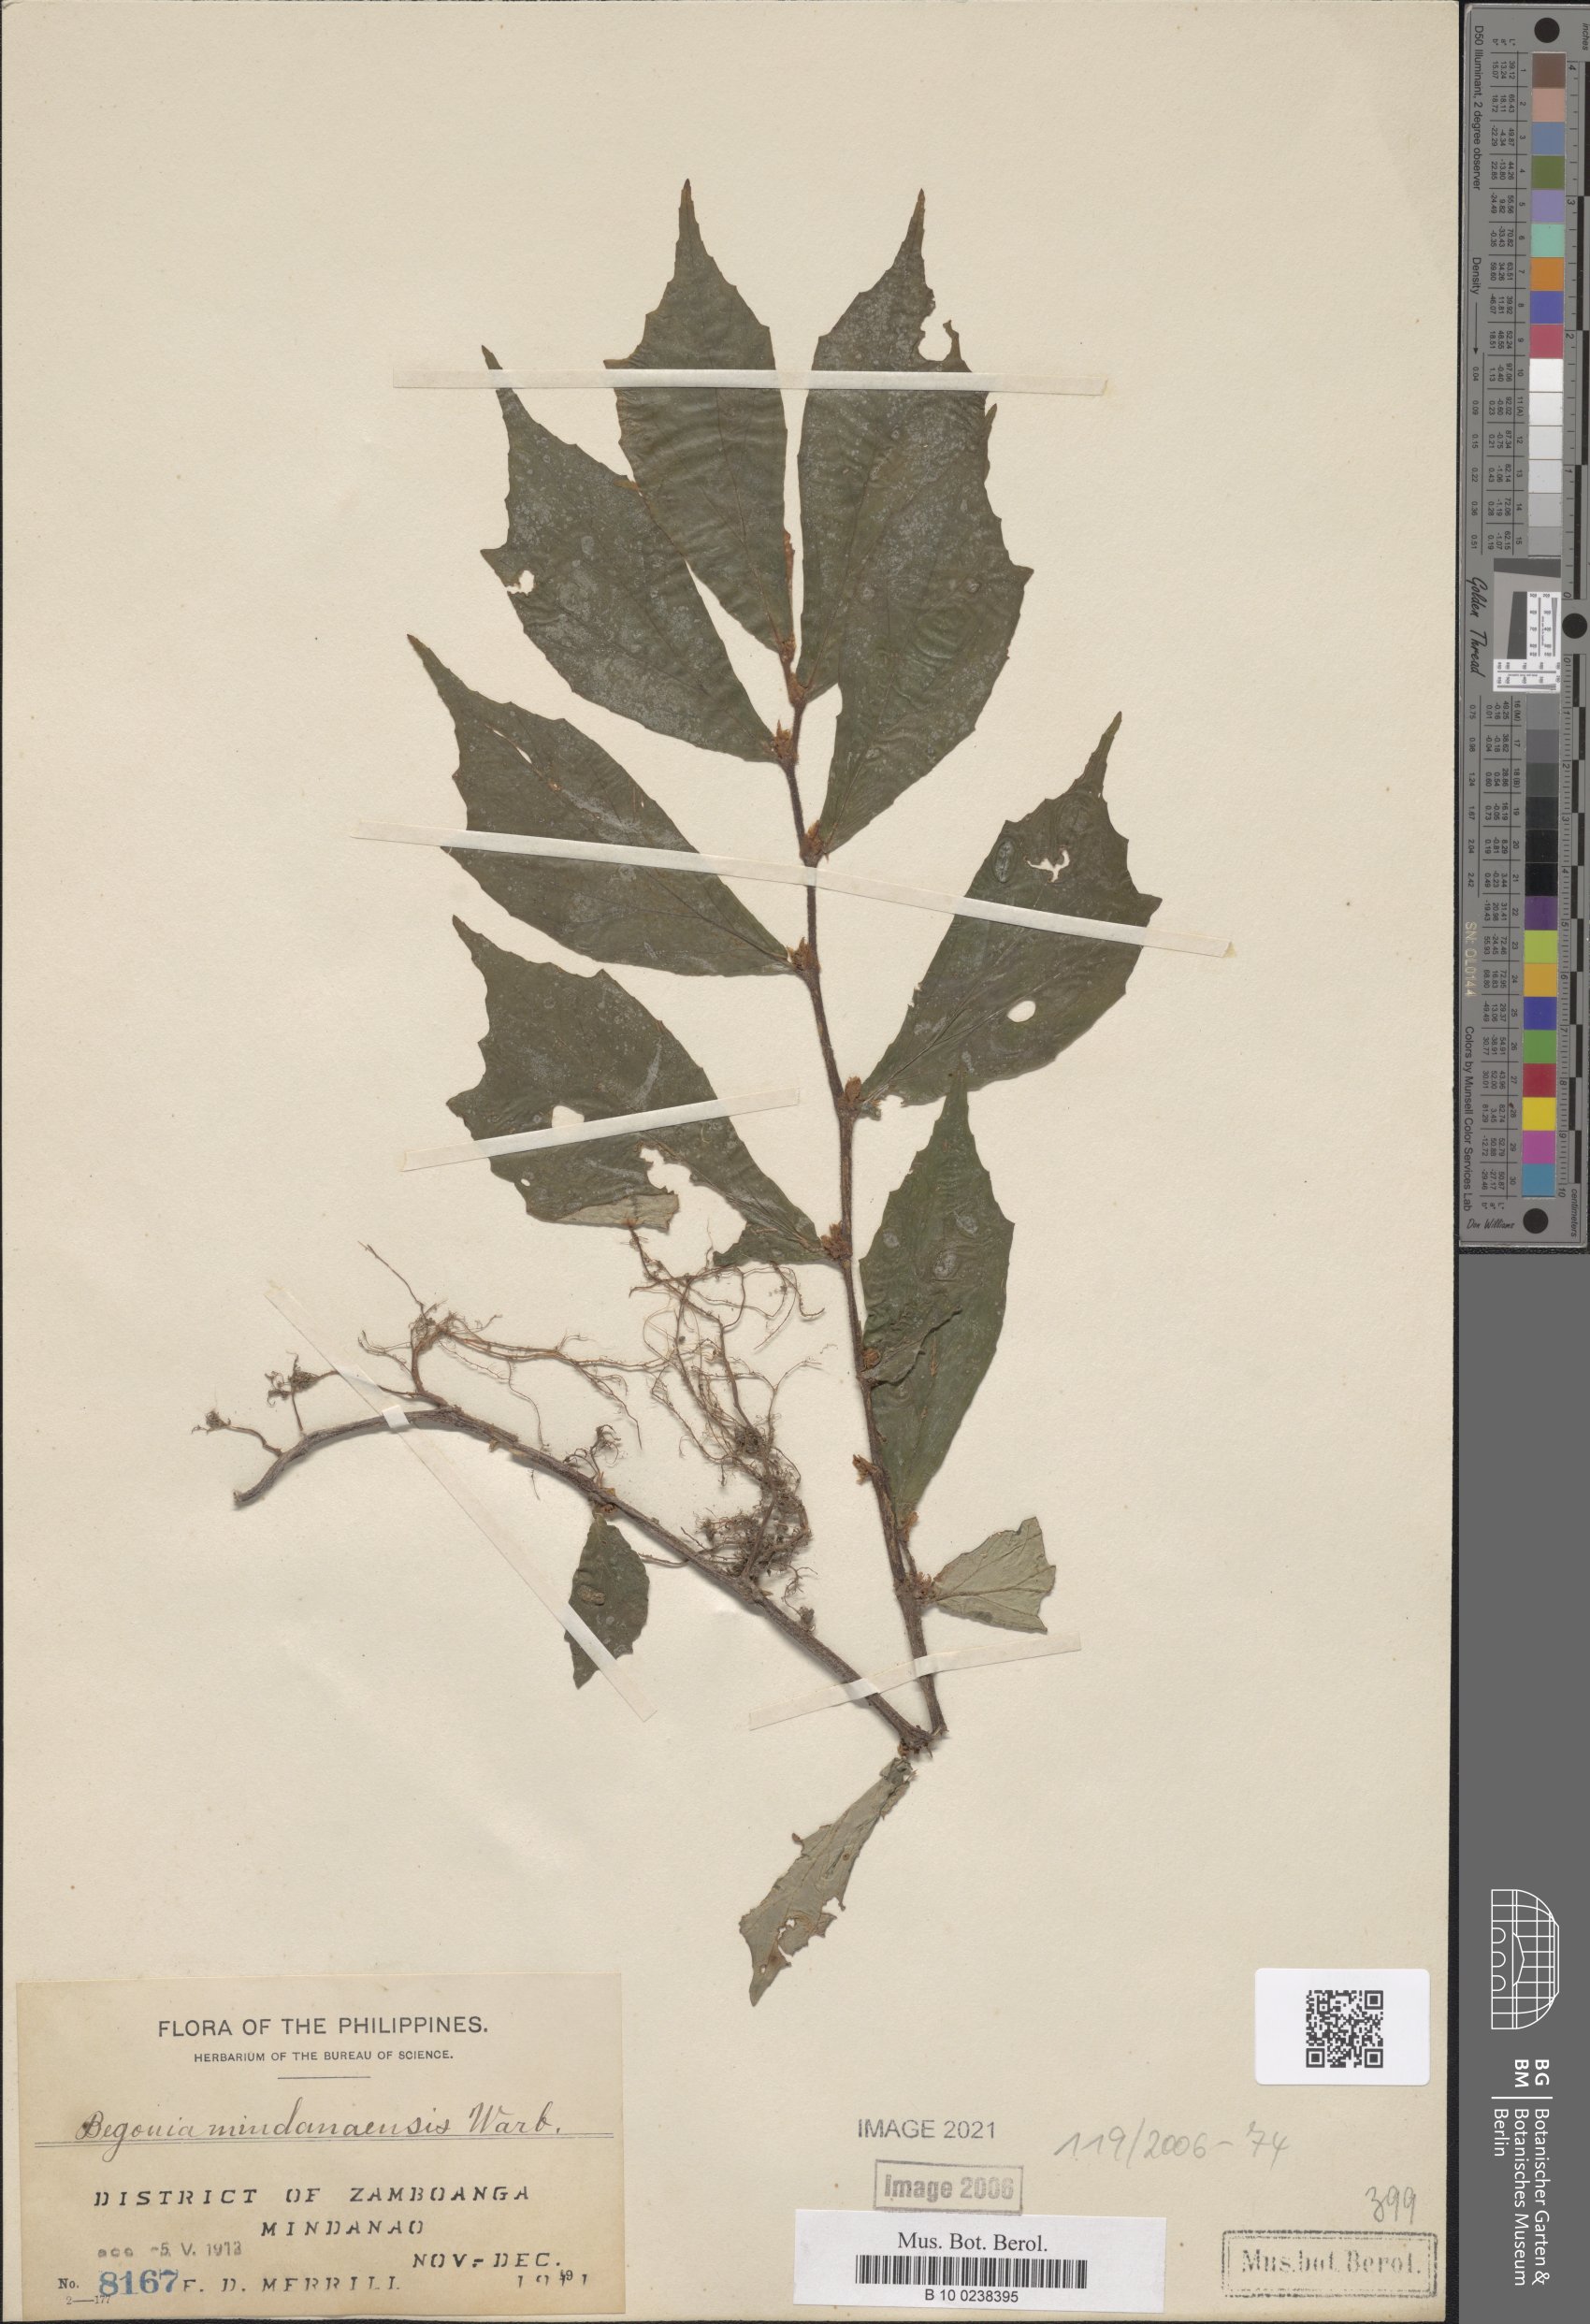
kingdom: Plantae
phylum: Tracheophyta
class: Magnoliopsida
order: Cucurbitales
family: Begoniaceae
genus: Begonia
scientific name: Begonia mindanaensis
